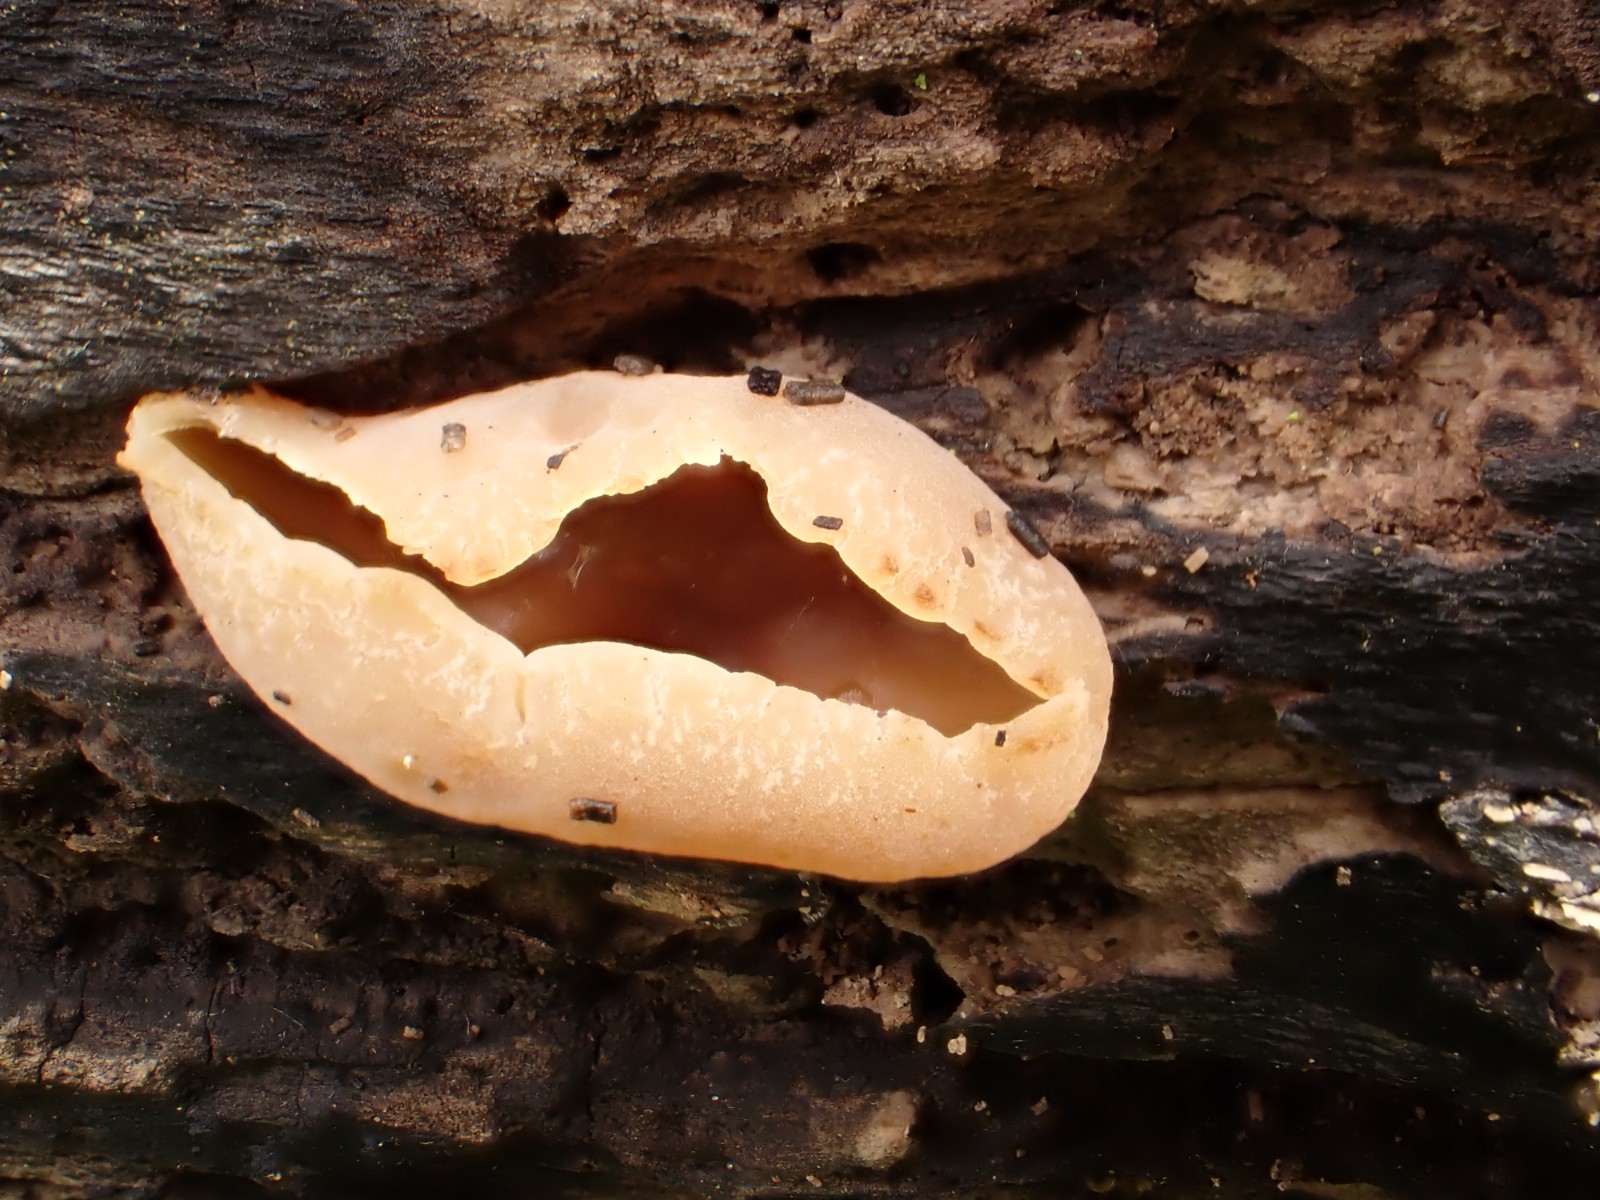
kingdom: Fungi
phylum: Ascomycota
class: Pezizomycetes
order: Pezizales
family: Pezizaceae
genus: Peziza
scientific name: Peziza varia
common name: Ved-bægersvamp
